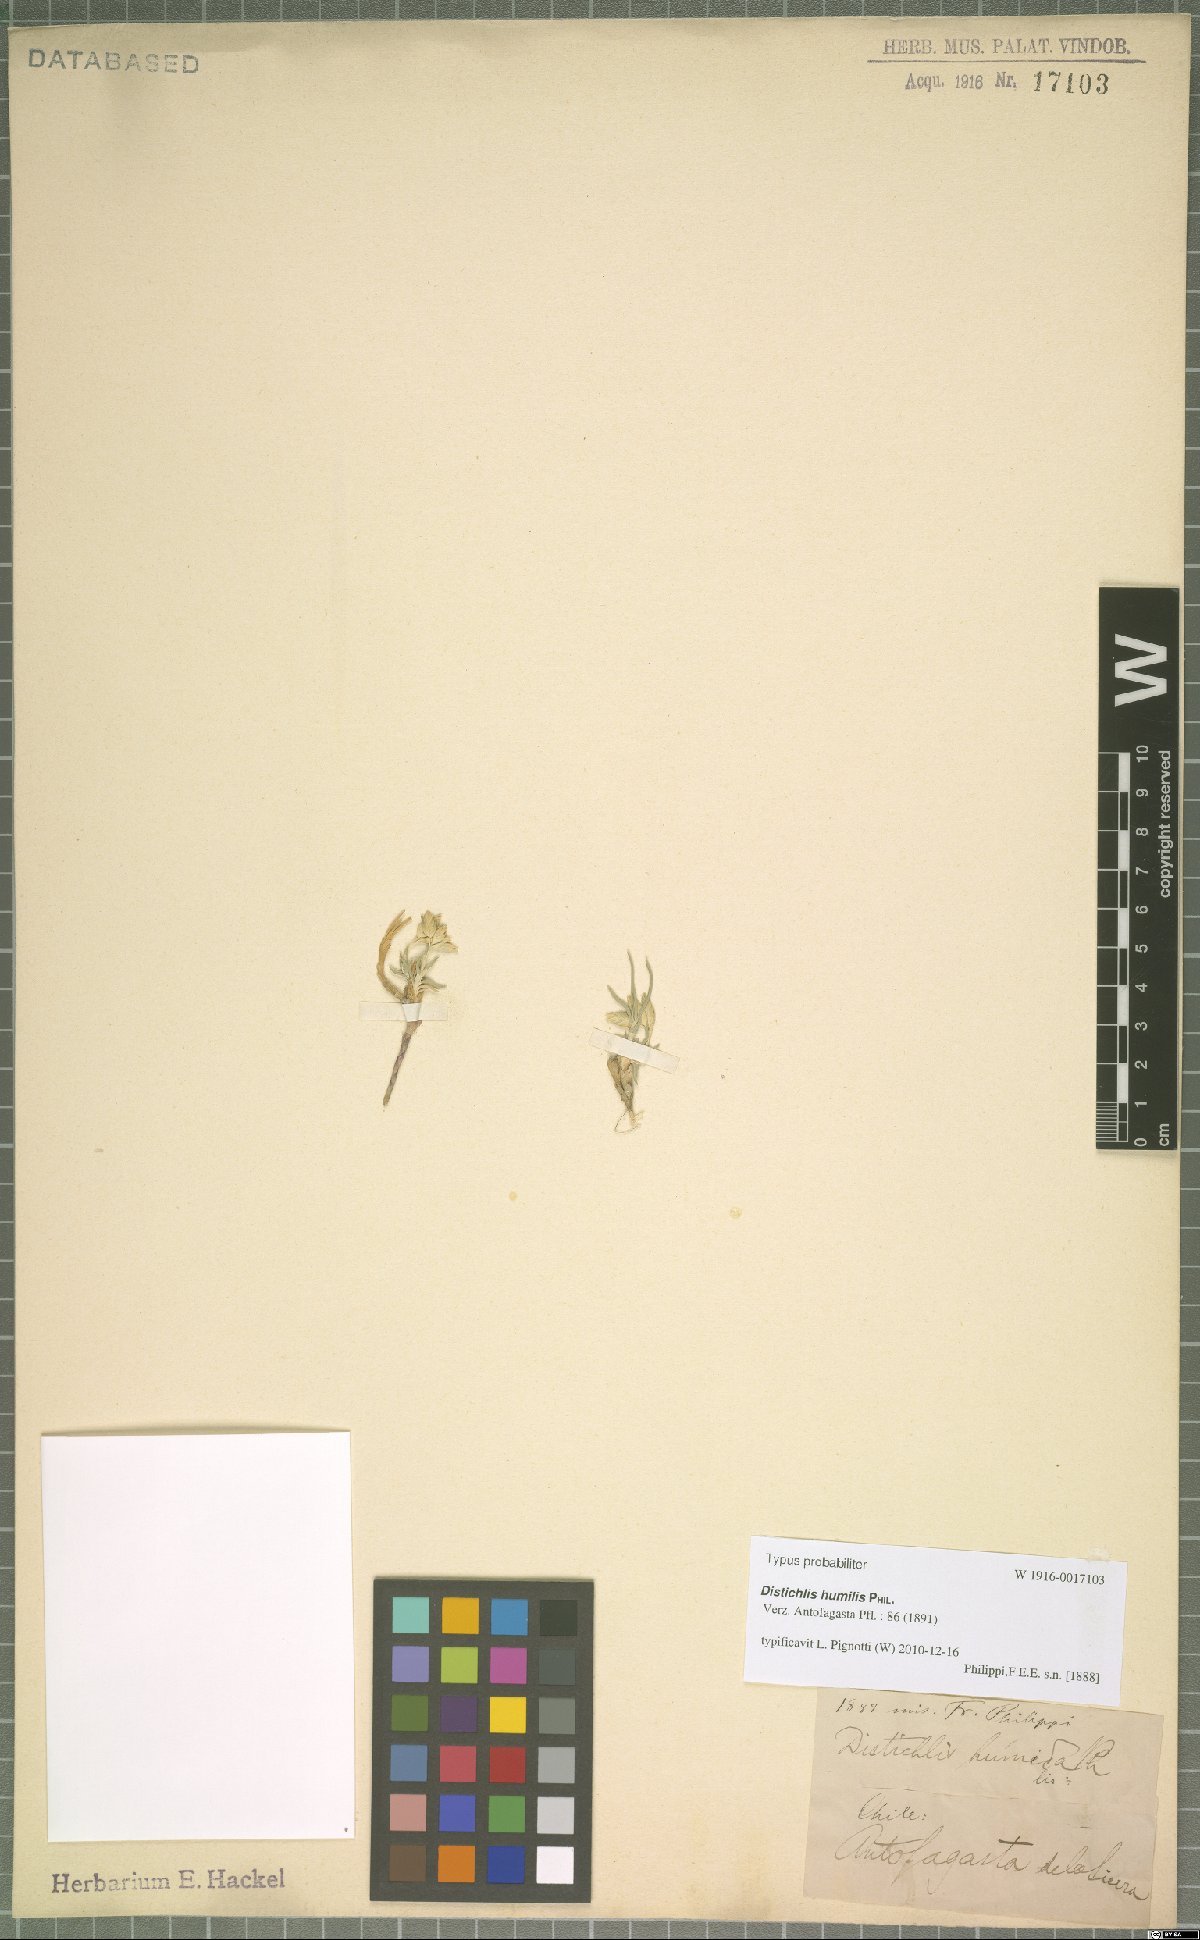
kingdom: Plantae
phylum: Tracheophyta
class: Liliopsida
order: Poales
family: Poaceae
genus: Distichlis
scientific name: Distichlis humilis
